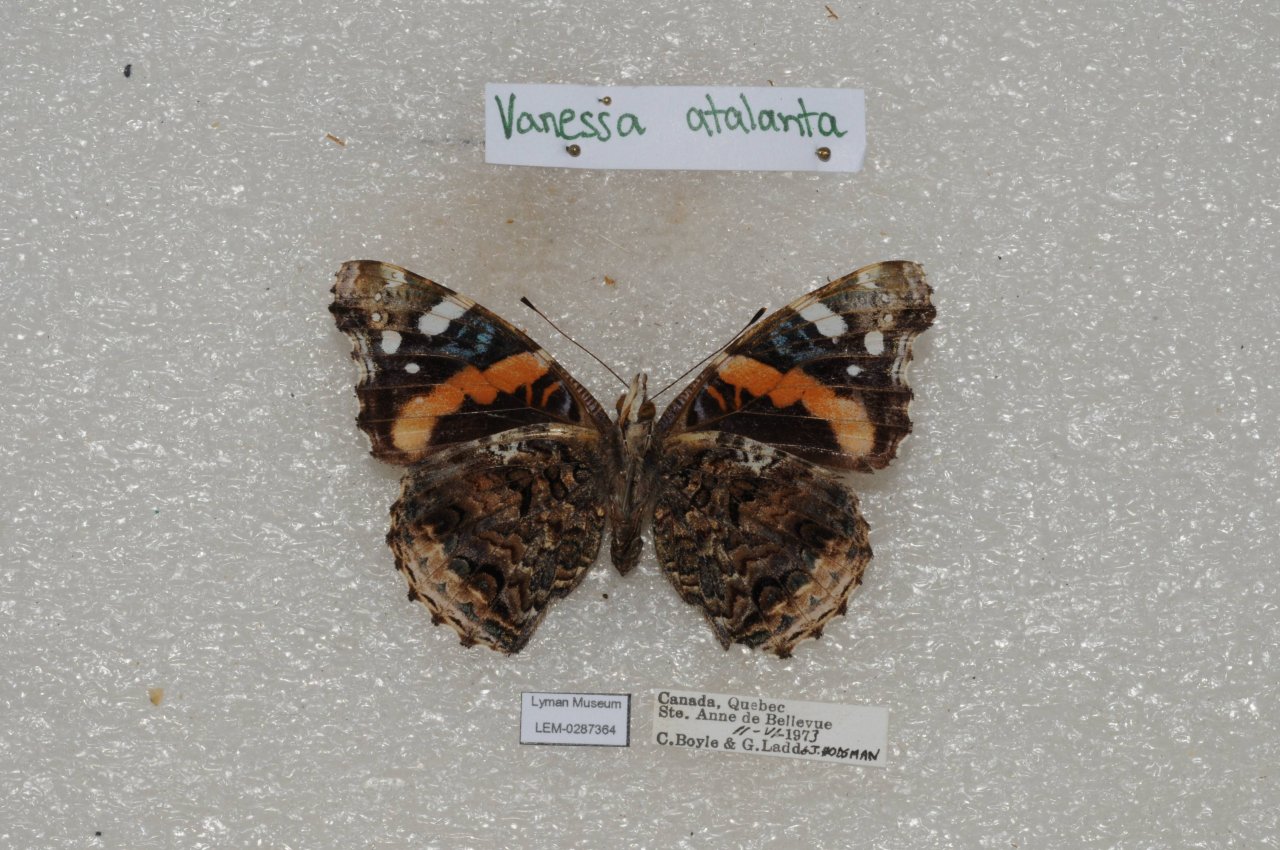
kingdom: Animalia
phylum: Arthropoda
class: Insecta
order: Lepidoptera
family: Nymphalidae
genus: Vanessa
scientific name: Vanessa atalanta
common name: Red Admiral
